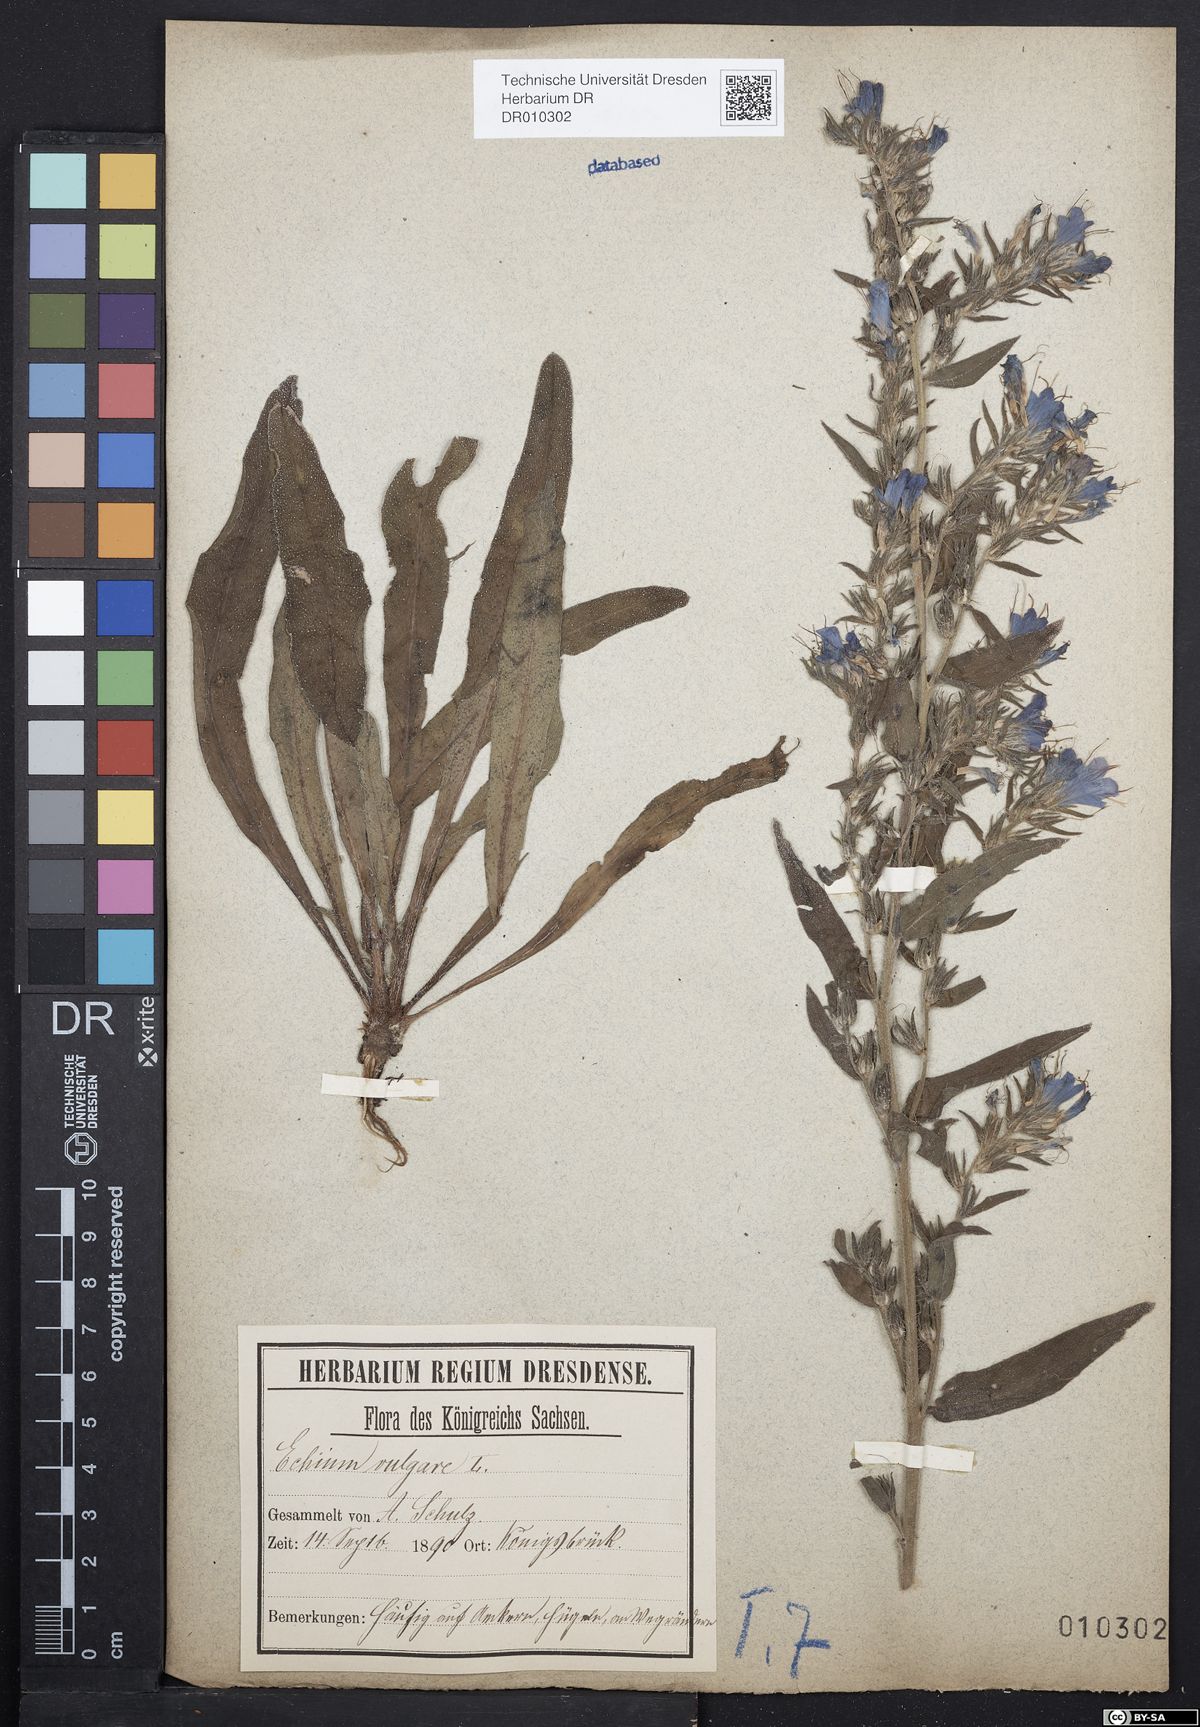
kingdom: Plantae
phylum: Tracheophyta
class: Magnoliopsida
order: Boraginales
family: Boraginaceae
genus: Echium
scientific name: Echium vulgare
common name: Common viper's bugloss
